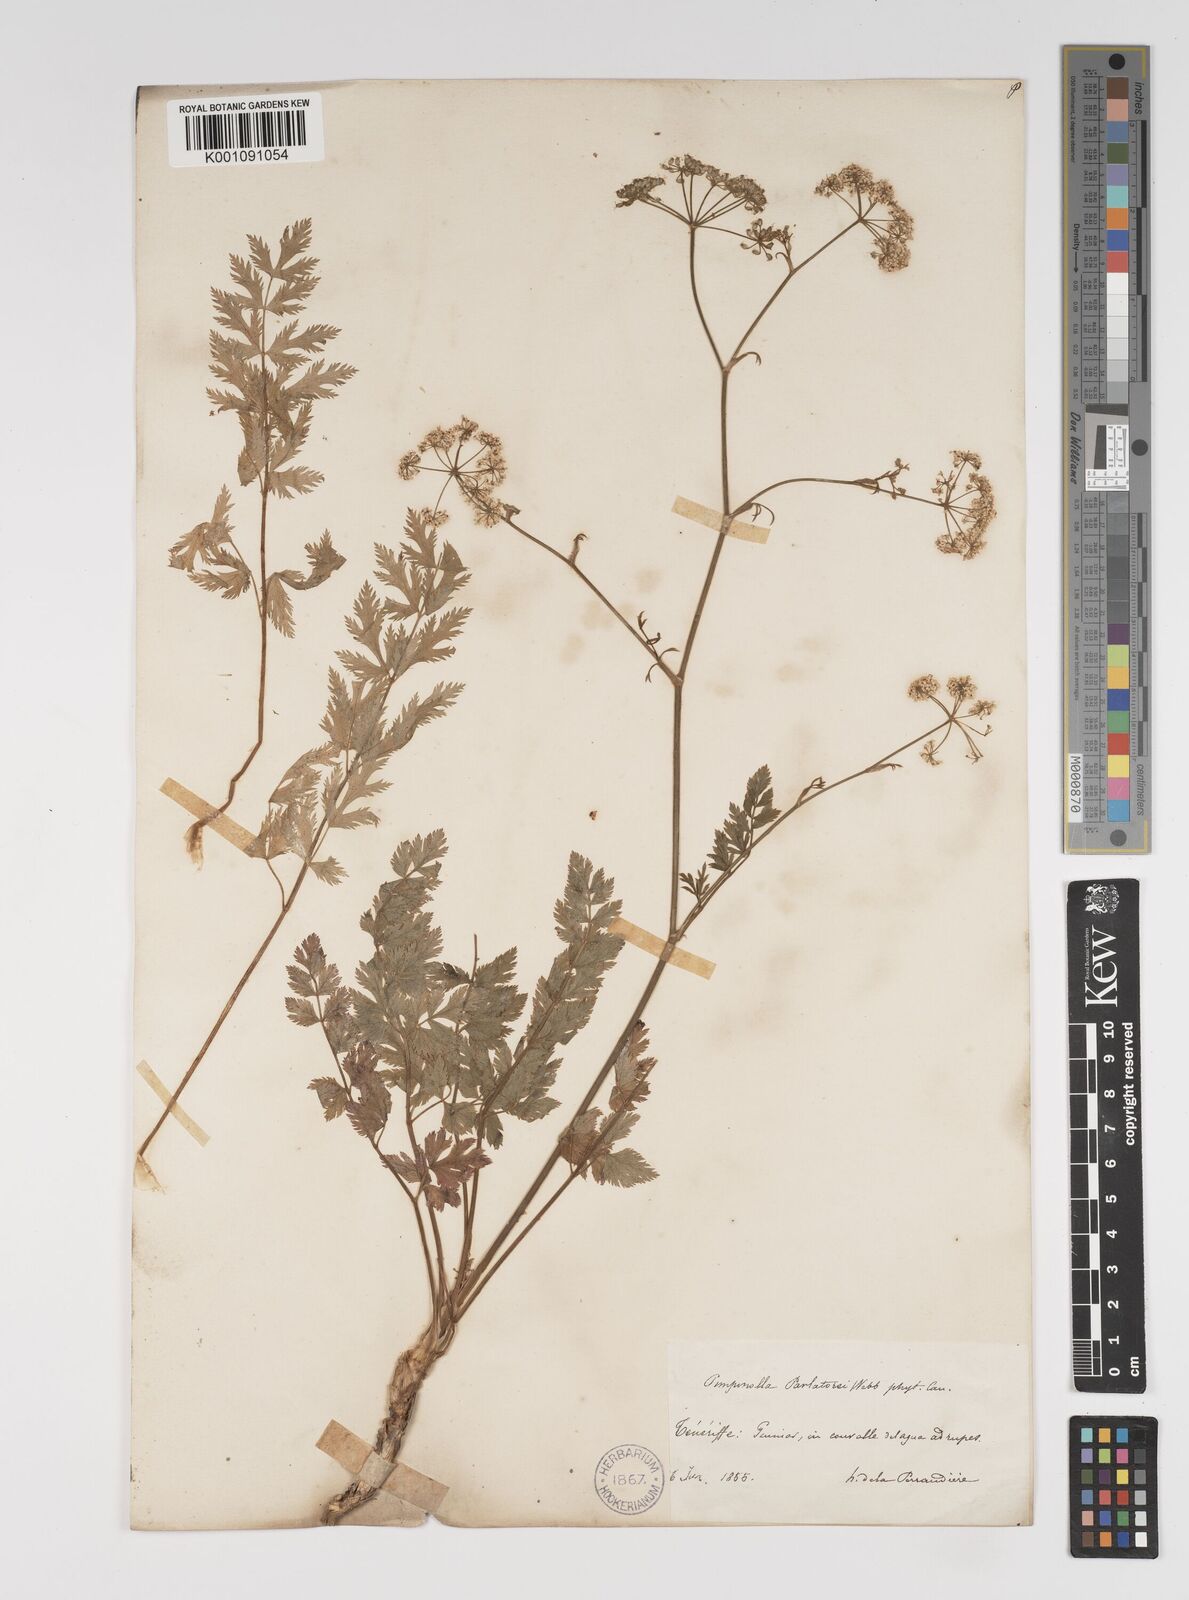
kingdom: Plantae
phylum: Tracheophyta
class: Magnoliopsida
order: Apiales
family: Apiaceae
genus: Pimpinella
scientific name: Pimpinella dendroselinum
